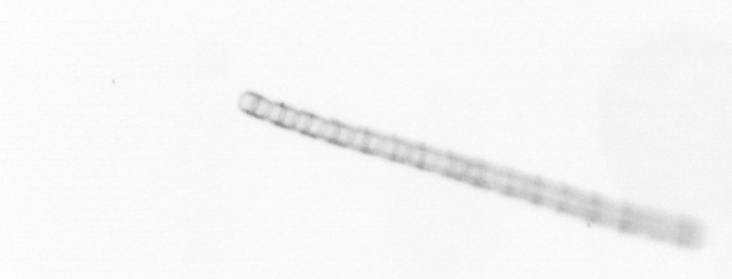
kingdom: Chromista
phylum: Ochrophyta
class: Bacillariophyceae
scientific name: Bacillariophyceae
